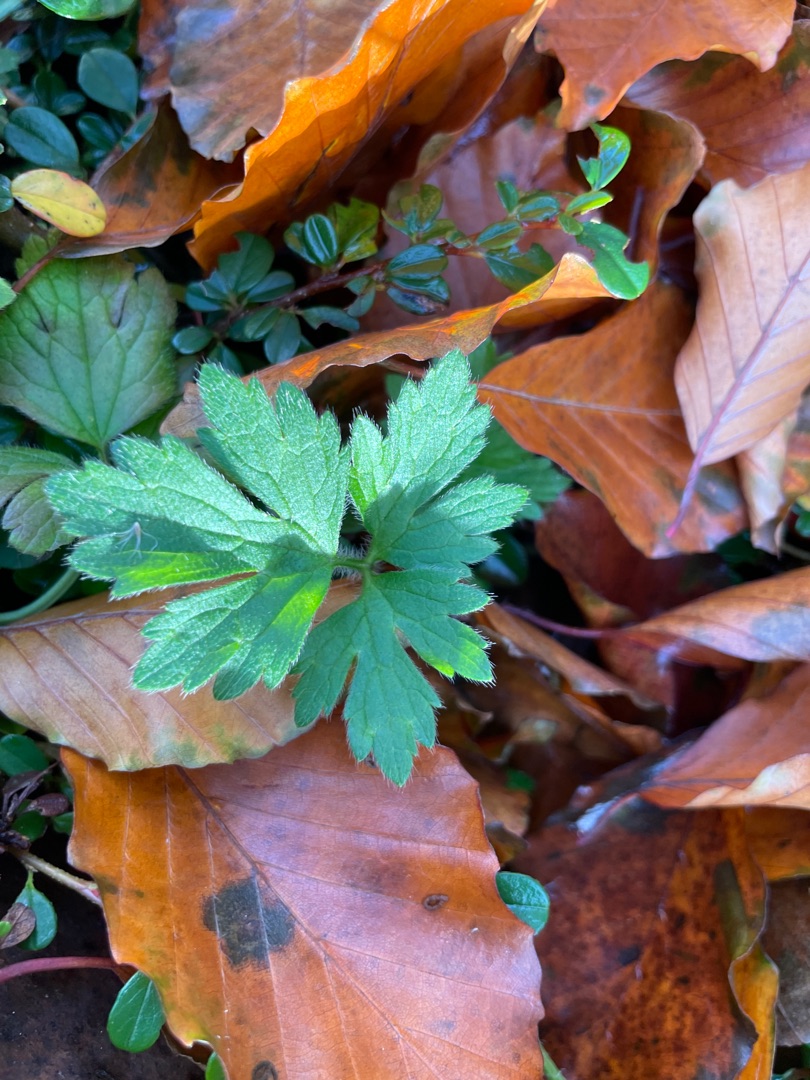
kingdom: Plantae
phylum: Tracheophyta
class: Magnoliopsida
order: Ranunculales
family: Ranunculaceae
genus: Ranunculus
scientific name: Ranunculus repens
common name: Lav ranunkel
